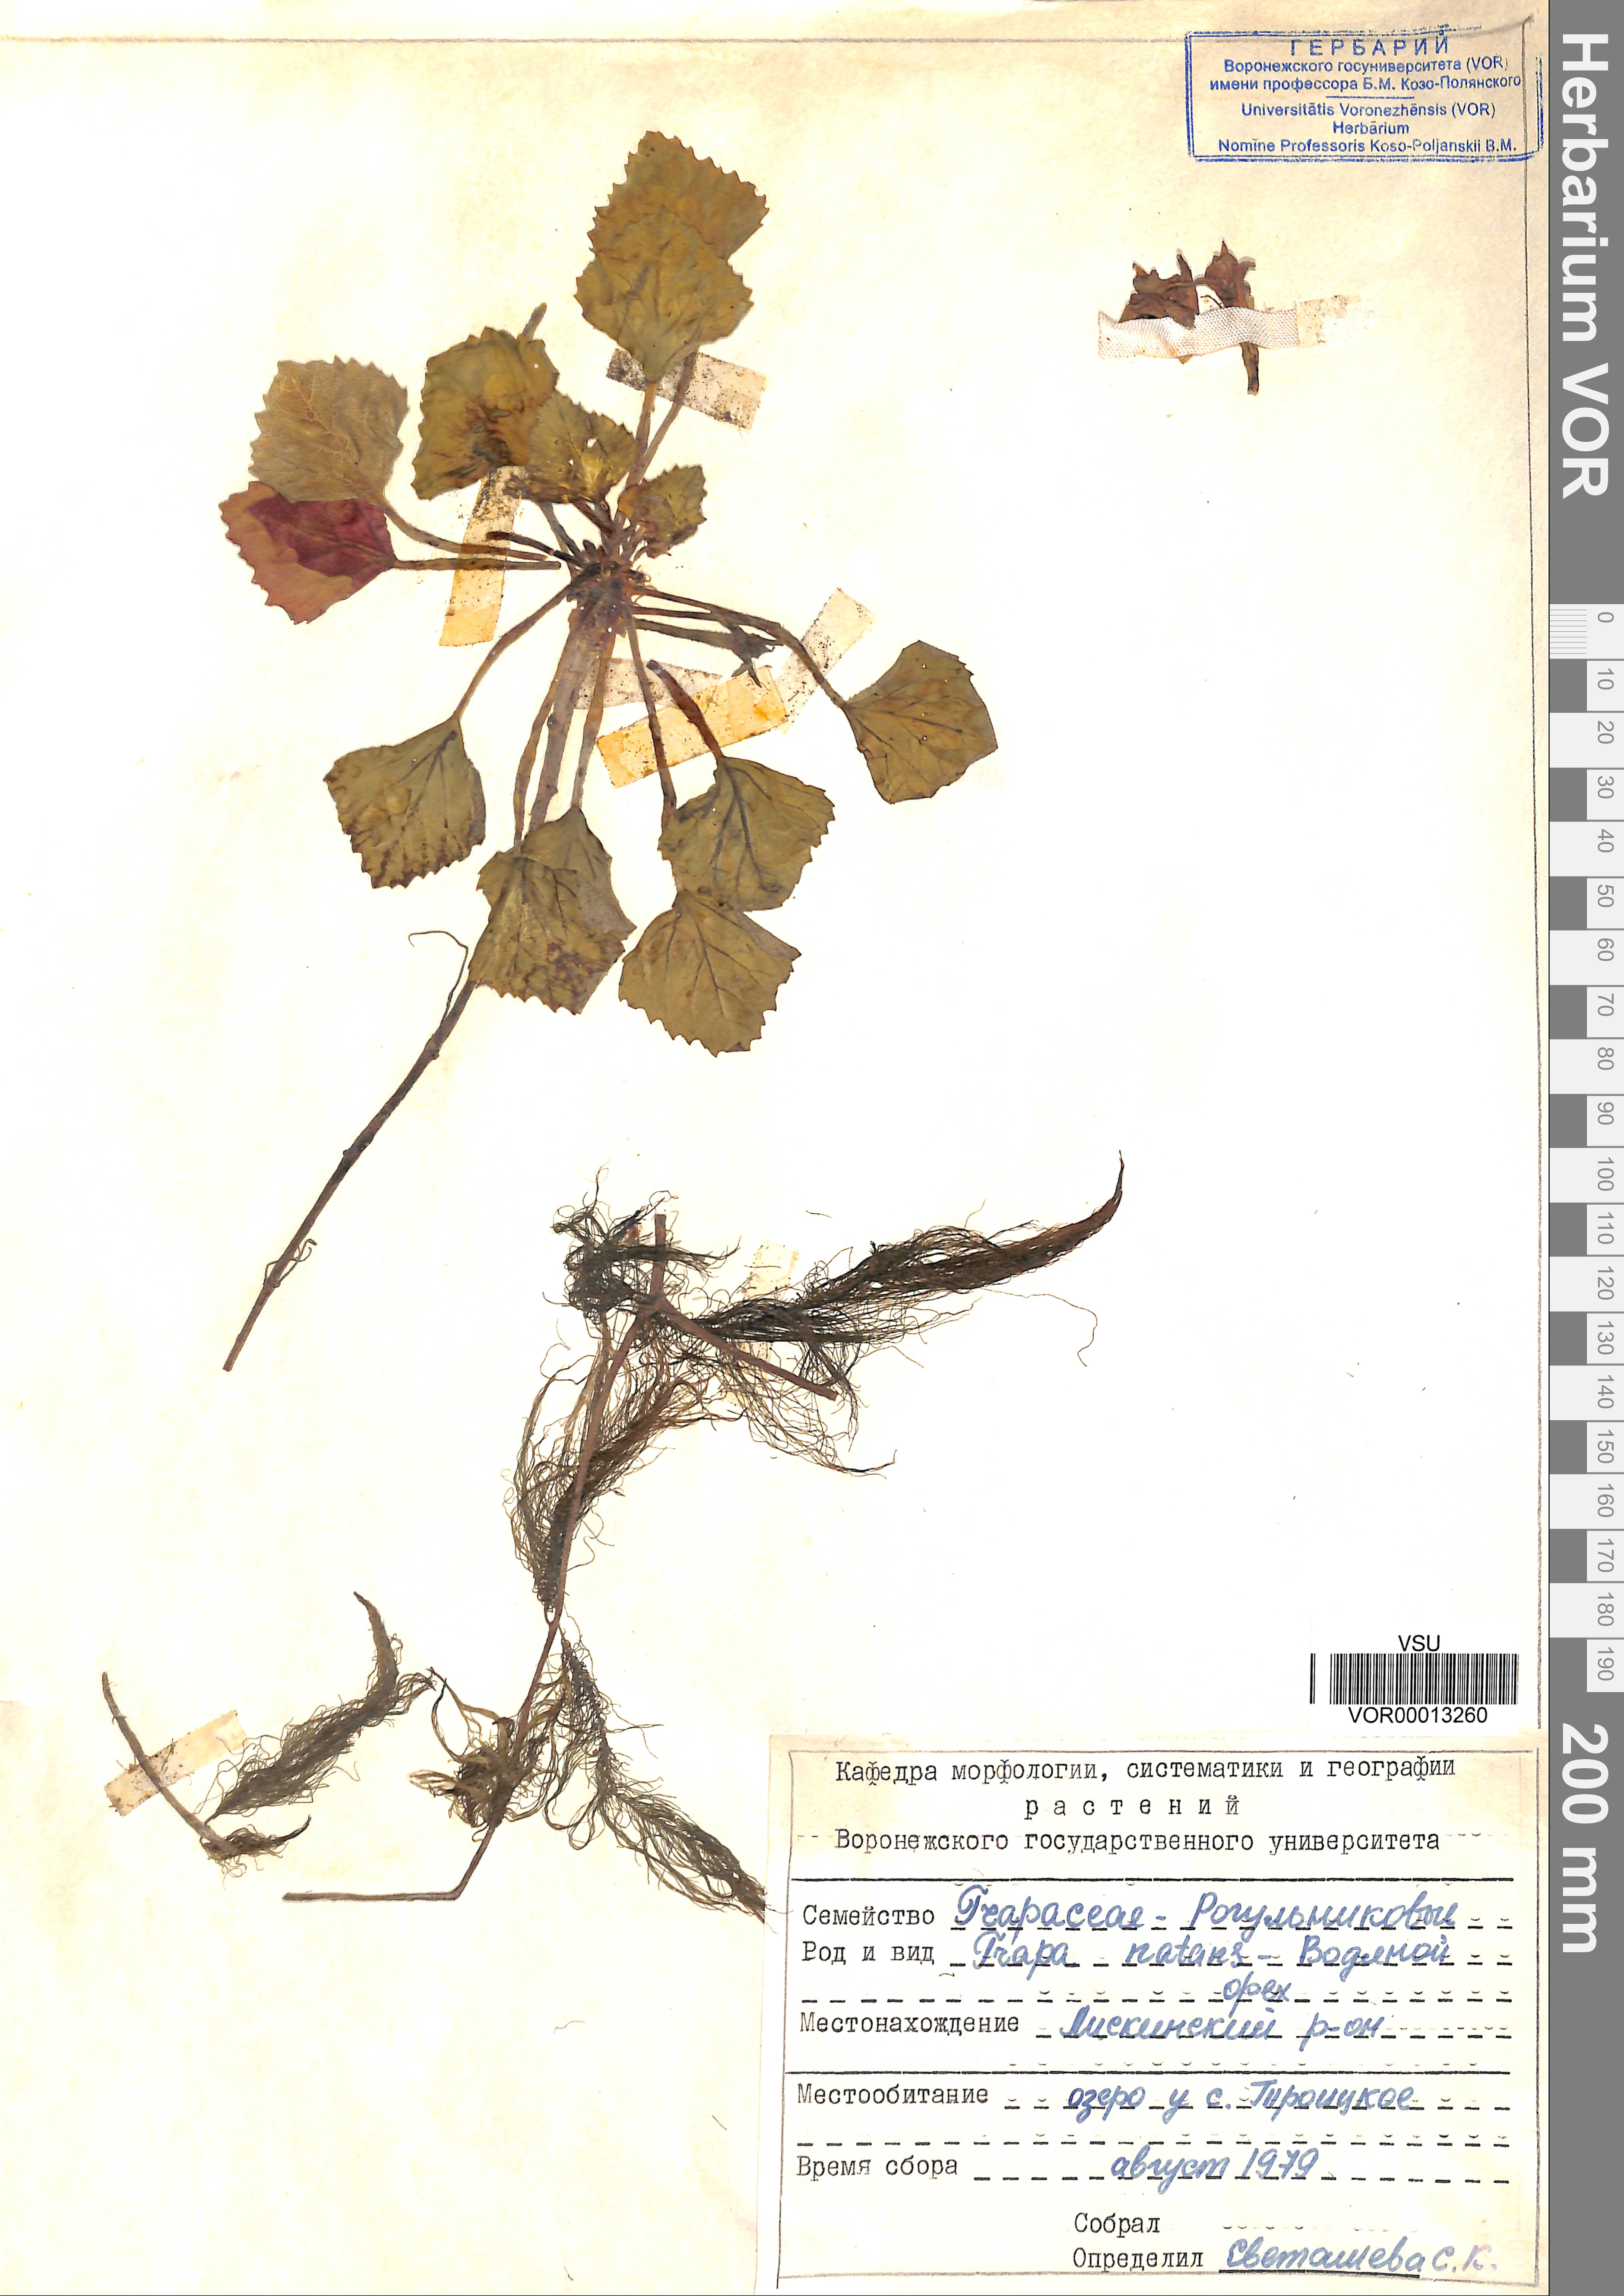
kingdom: Plantae
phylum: Tracheophyta
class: Magnoliopsida
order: Myrtales
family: Lythraceae
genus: Trapa
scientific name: Trapa natans
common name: Water chestnut
